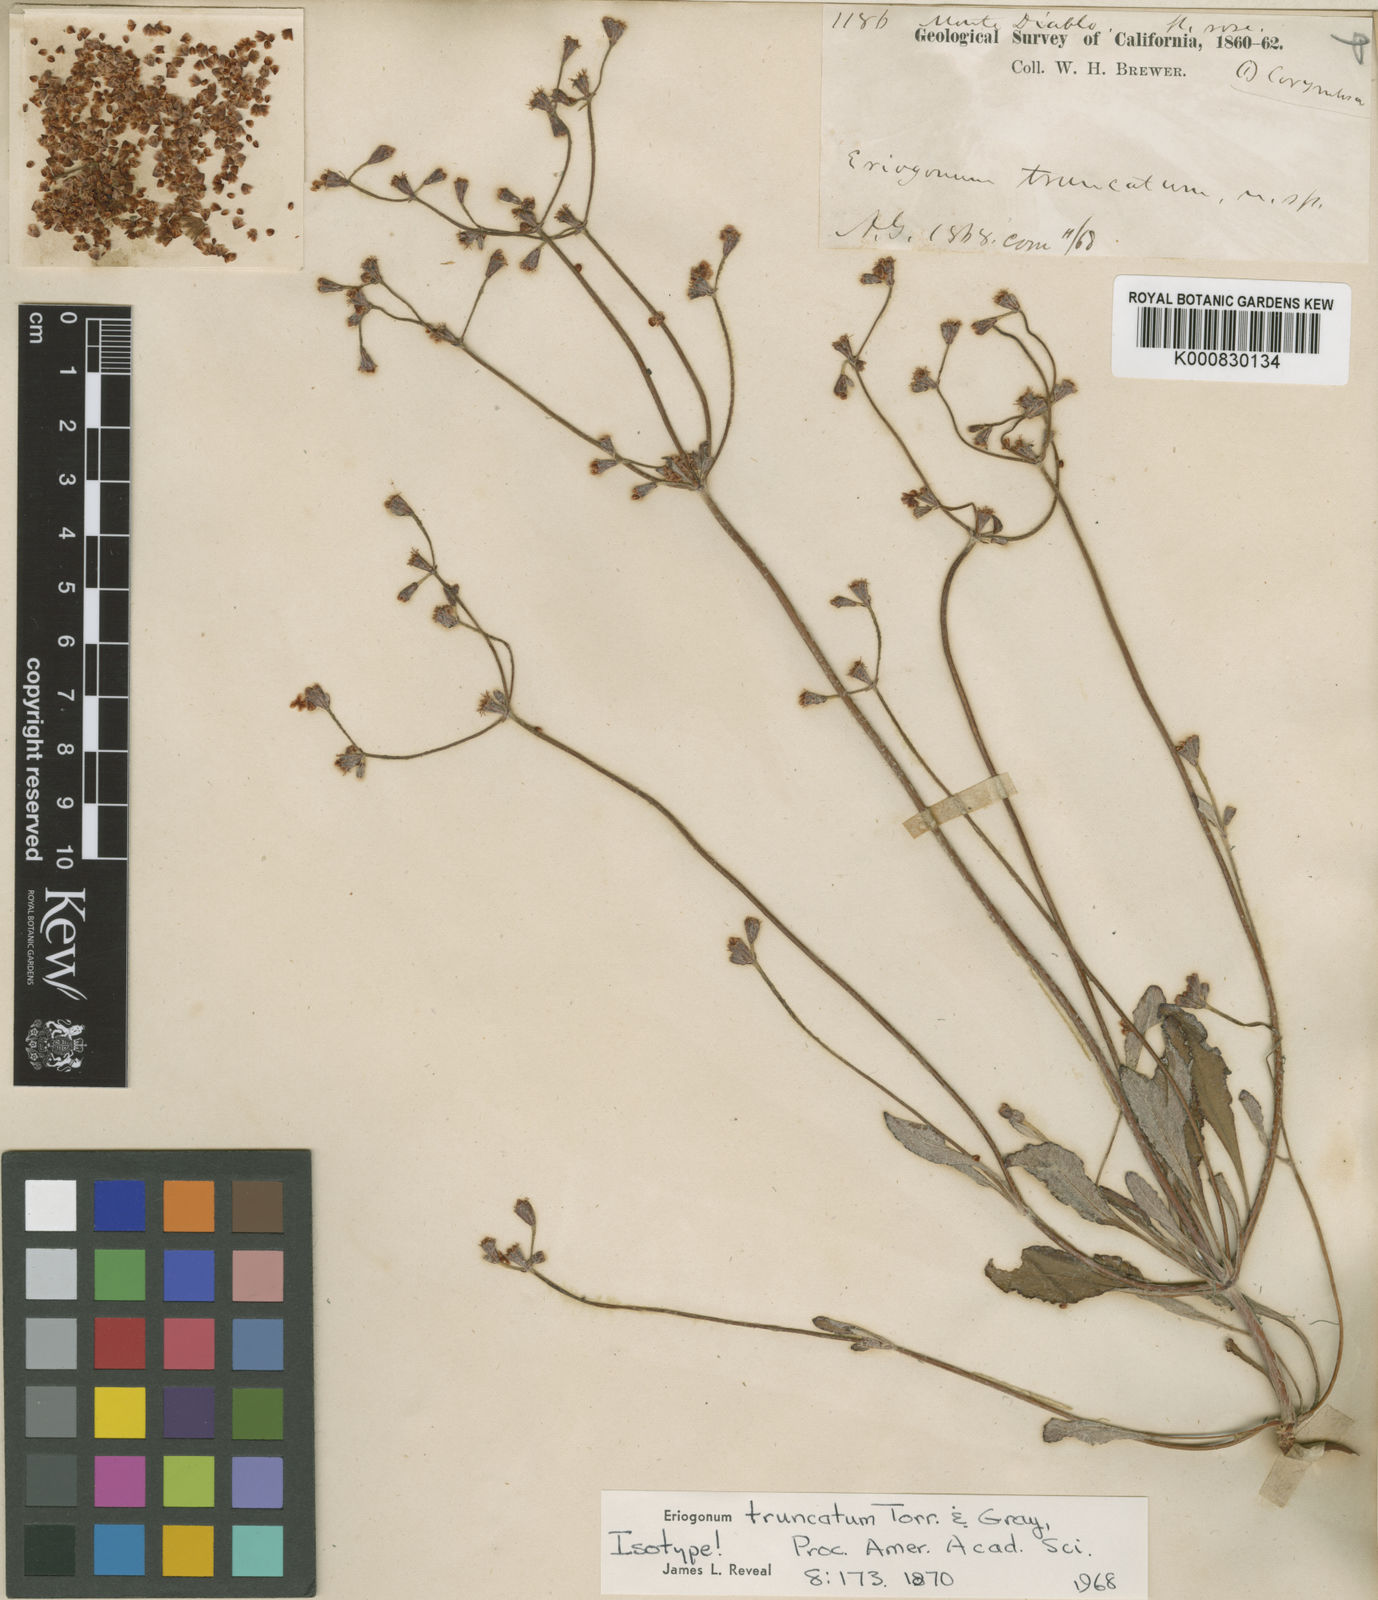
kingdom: Plantae
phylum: Tracheophyta
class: Magnoliopsida
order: Caryophyllales
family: Polygonaceae
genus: Eriogonum
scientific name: Eriogonum truncatum
